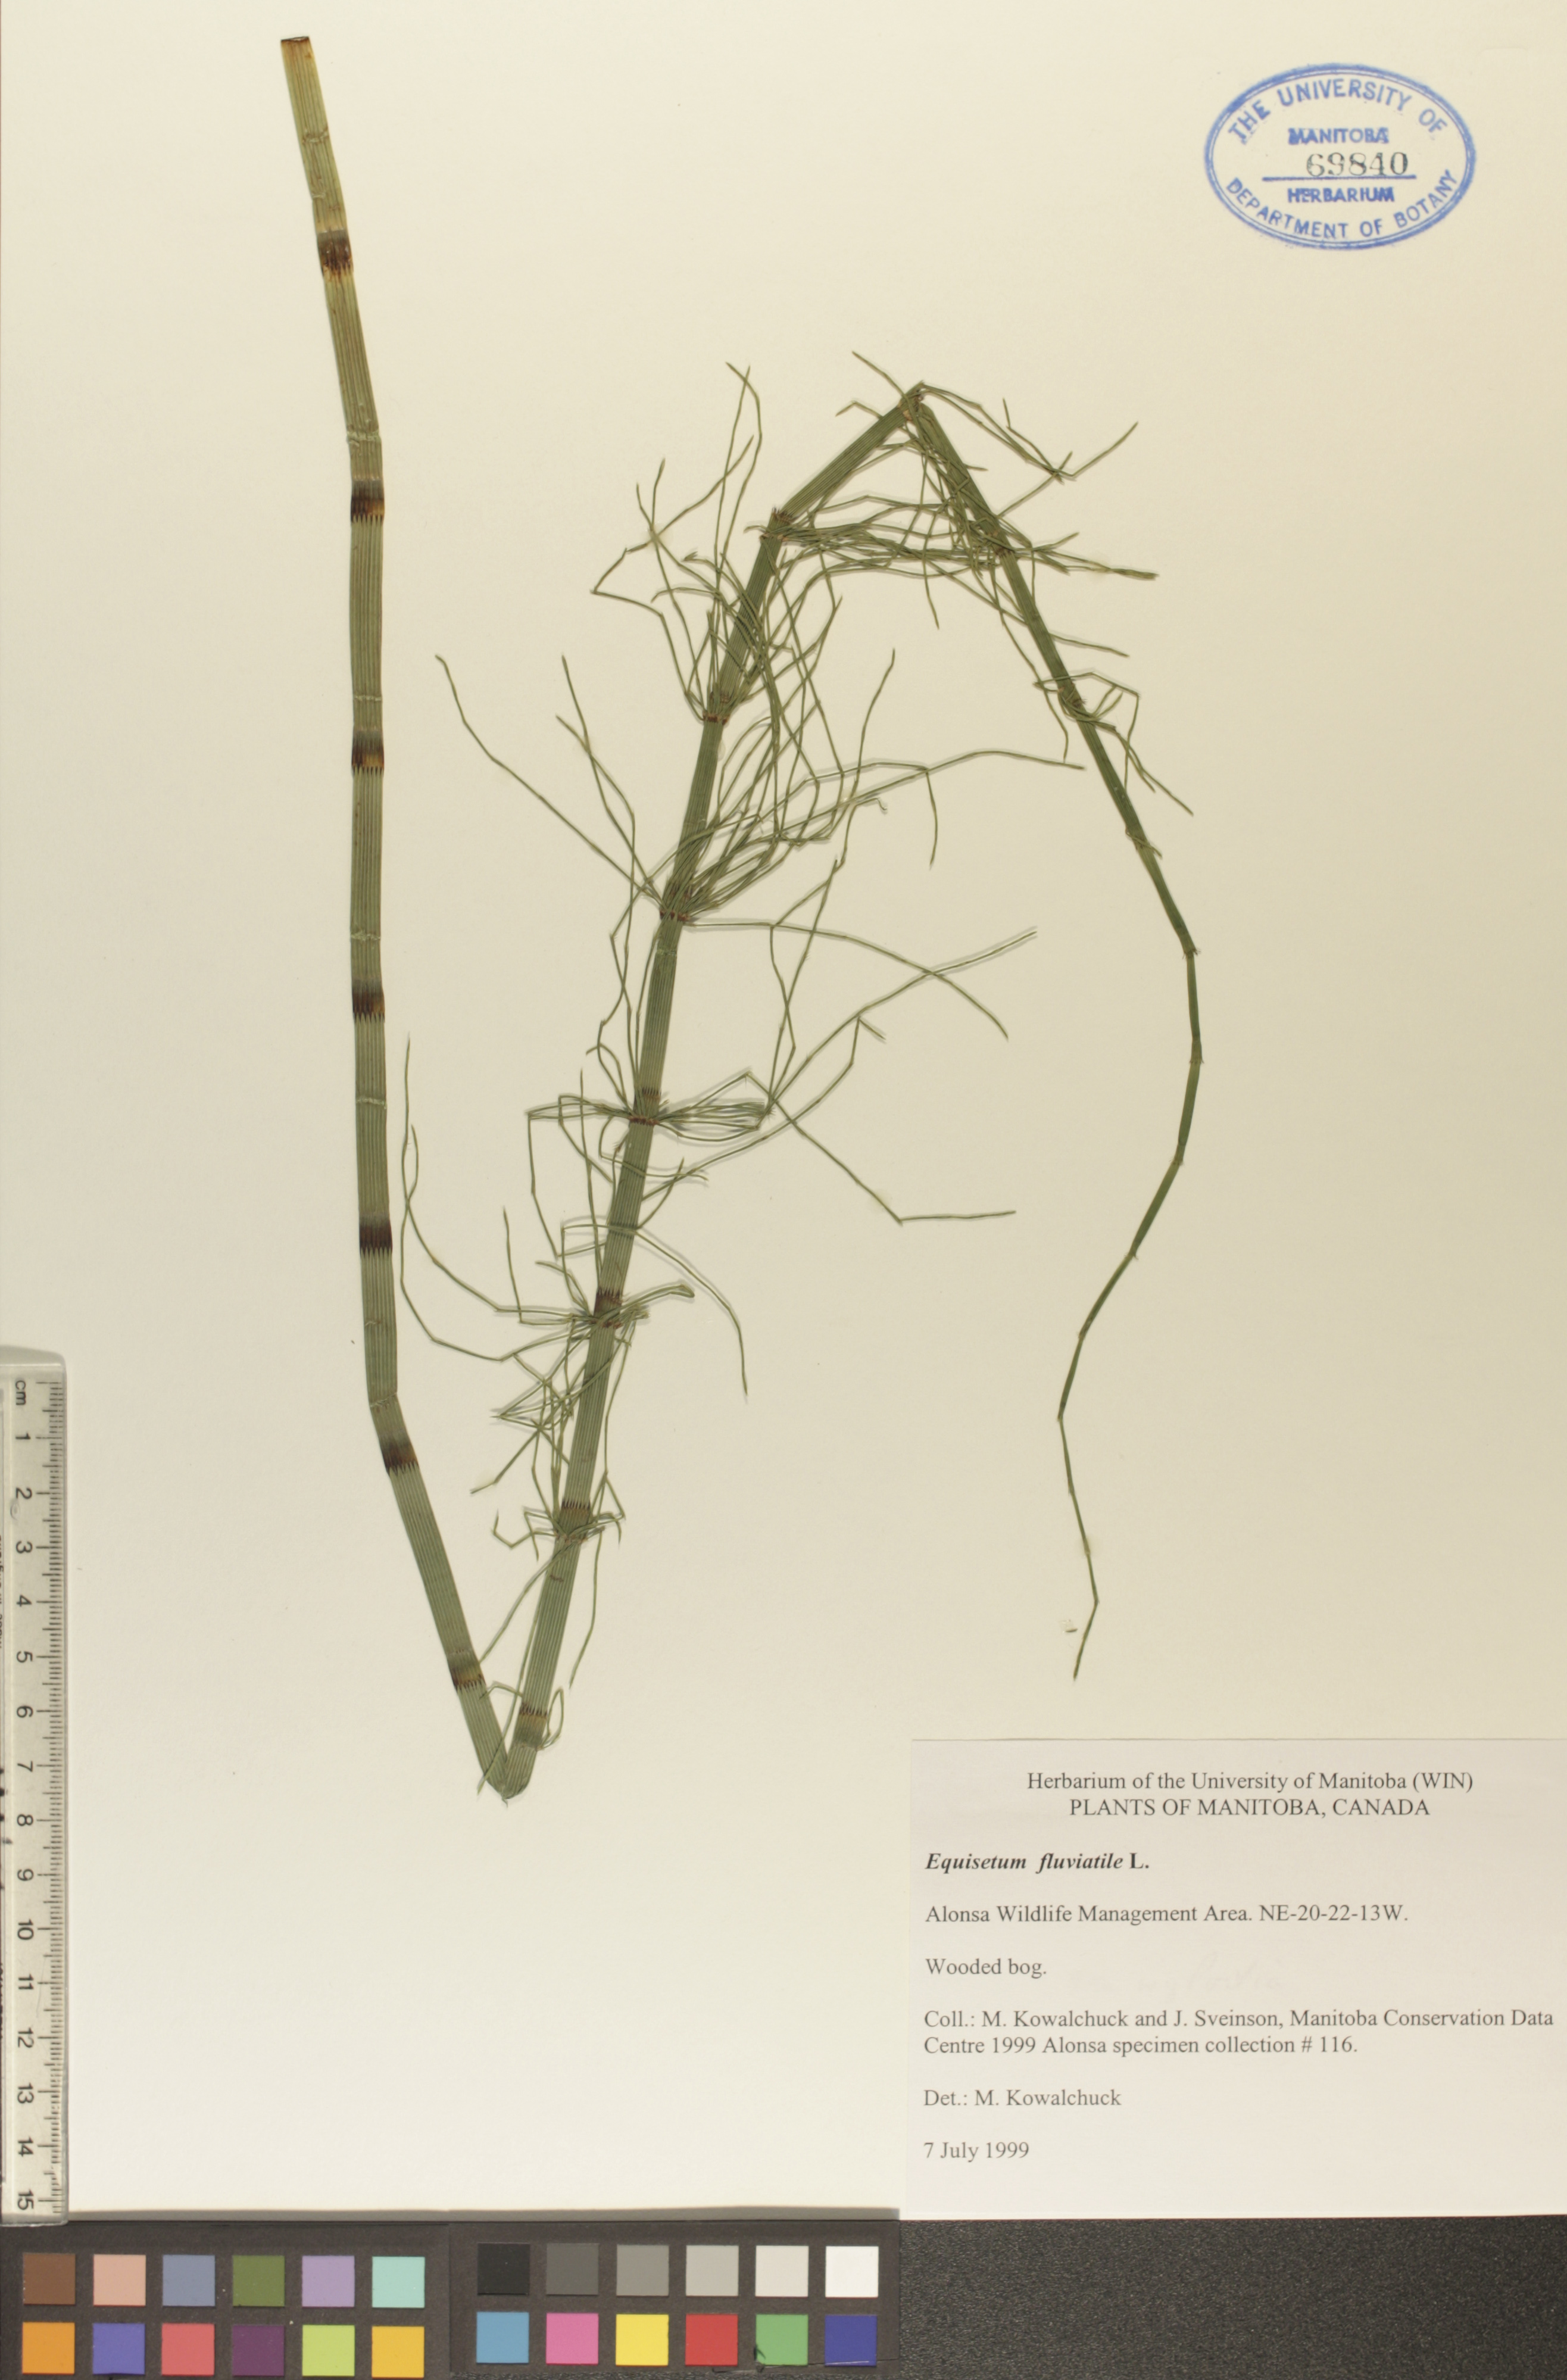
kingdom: Plantae
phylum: Tracheophyta
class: Polypodiopsida
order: Equisetales
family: Equisetaceae
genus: Equisetum
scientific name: Equisetum fluviatile
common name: Water horsetail
